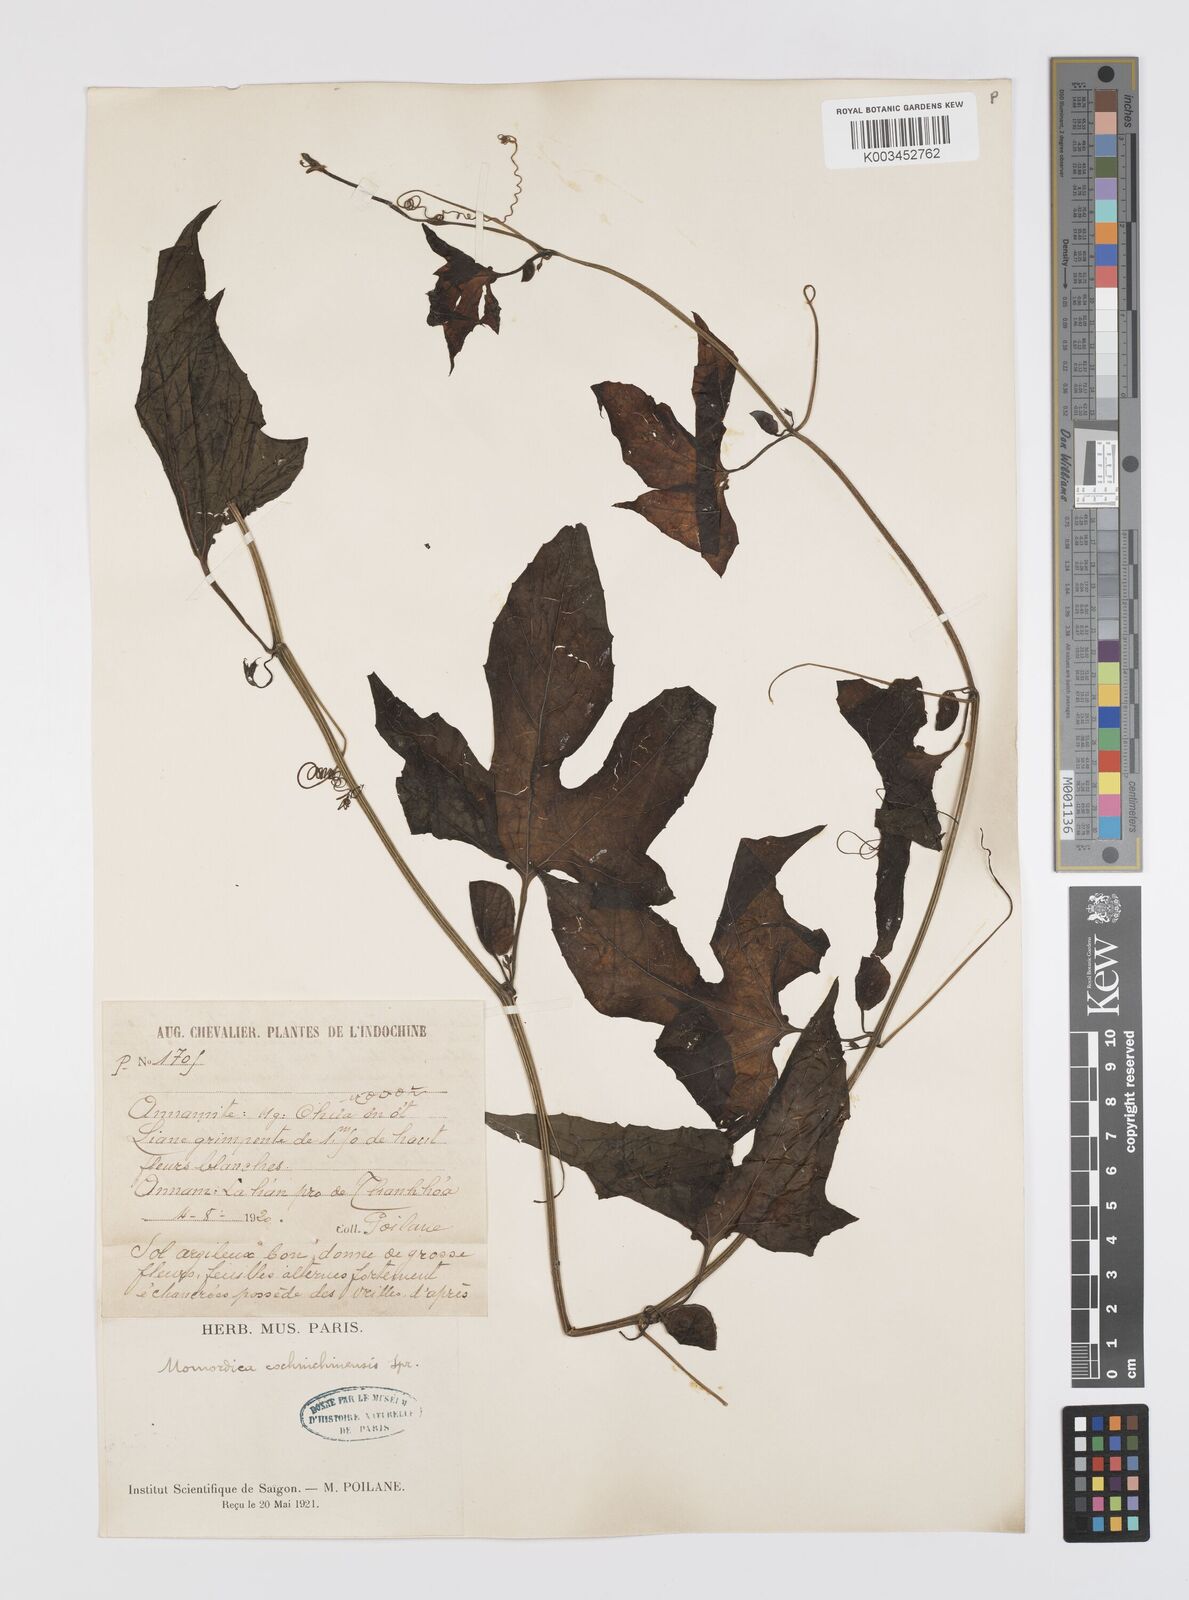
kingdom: Plantae
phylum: Tracheophyta
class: Magnoliopsida
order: Cucurbitales
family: Cucurbitaceae
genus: Momordica
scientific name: Momordica cochinchinensis
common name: Chinese bitter-cucumber
